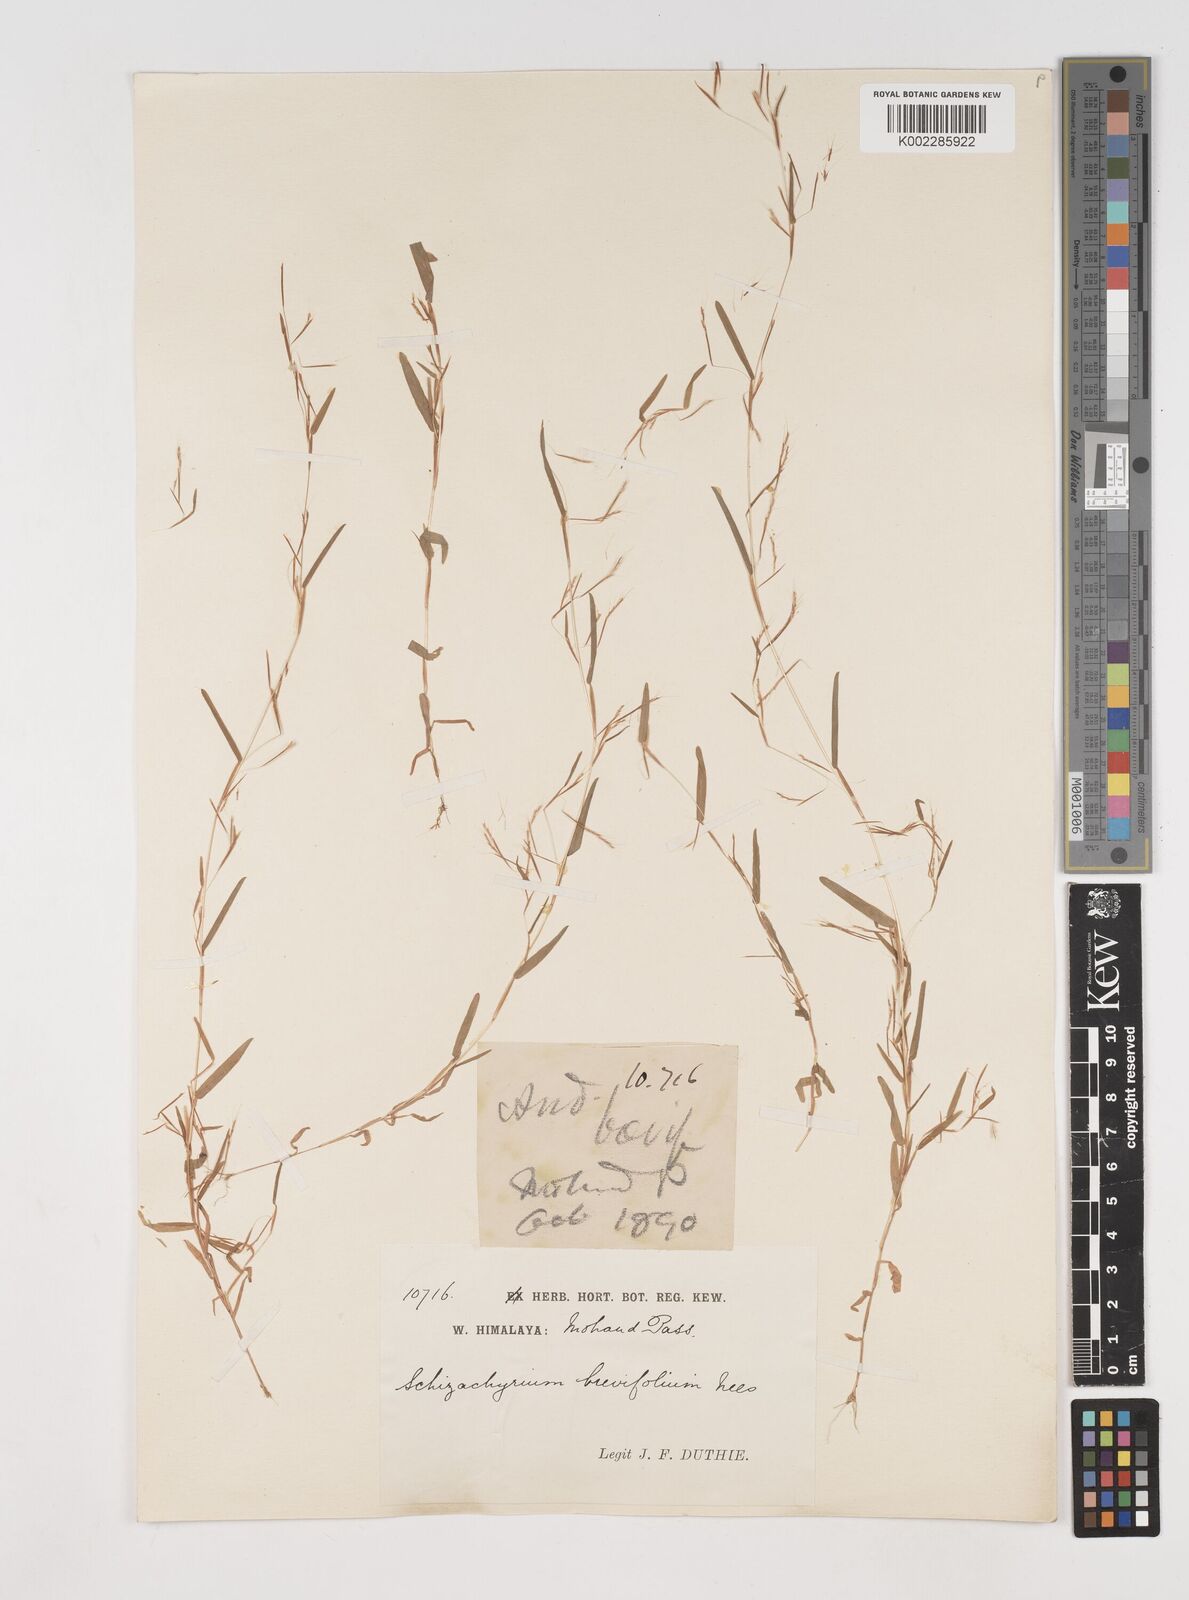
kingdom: Plantae
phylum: Tracheophyta
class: Liliopsida
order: Poales
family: Poaceae
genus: Schizachyrium
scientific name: Schizachyrium brevifolium
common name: Serillo dulce
